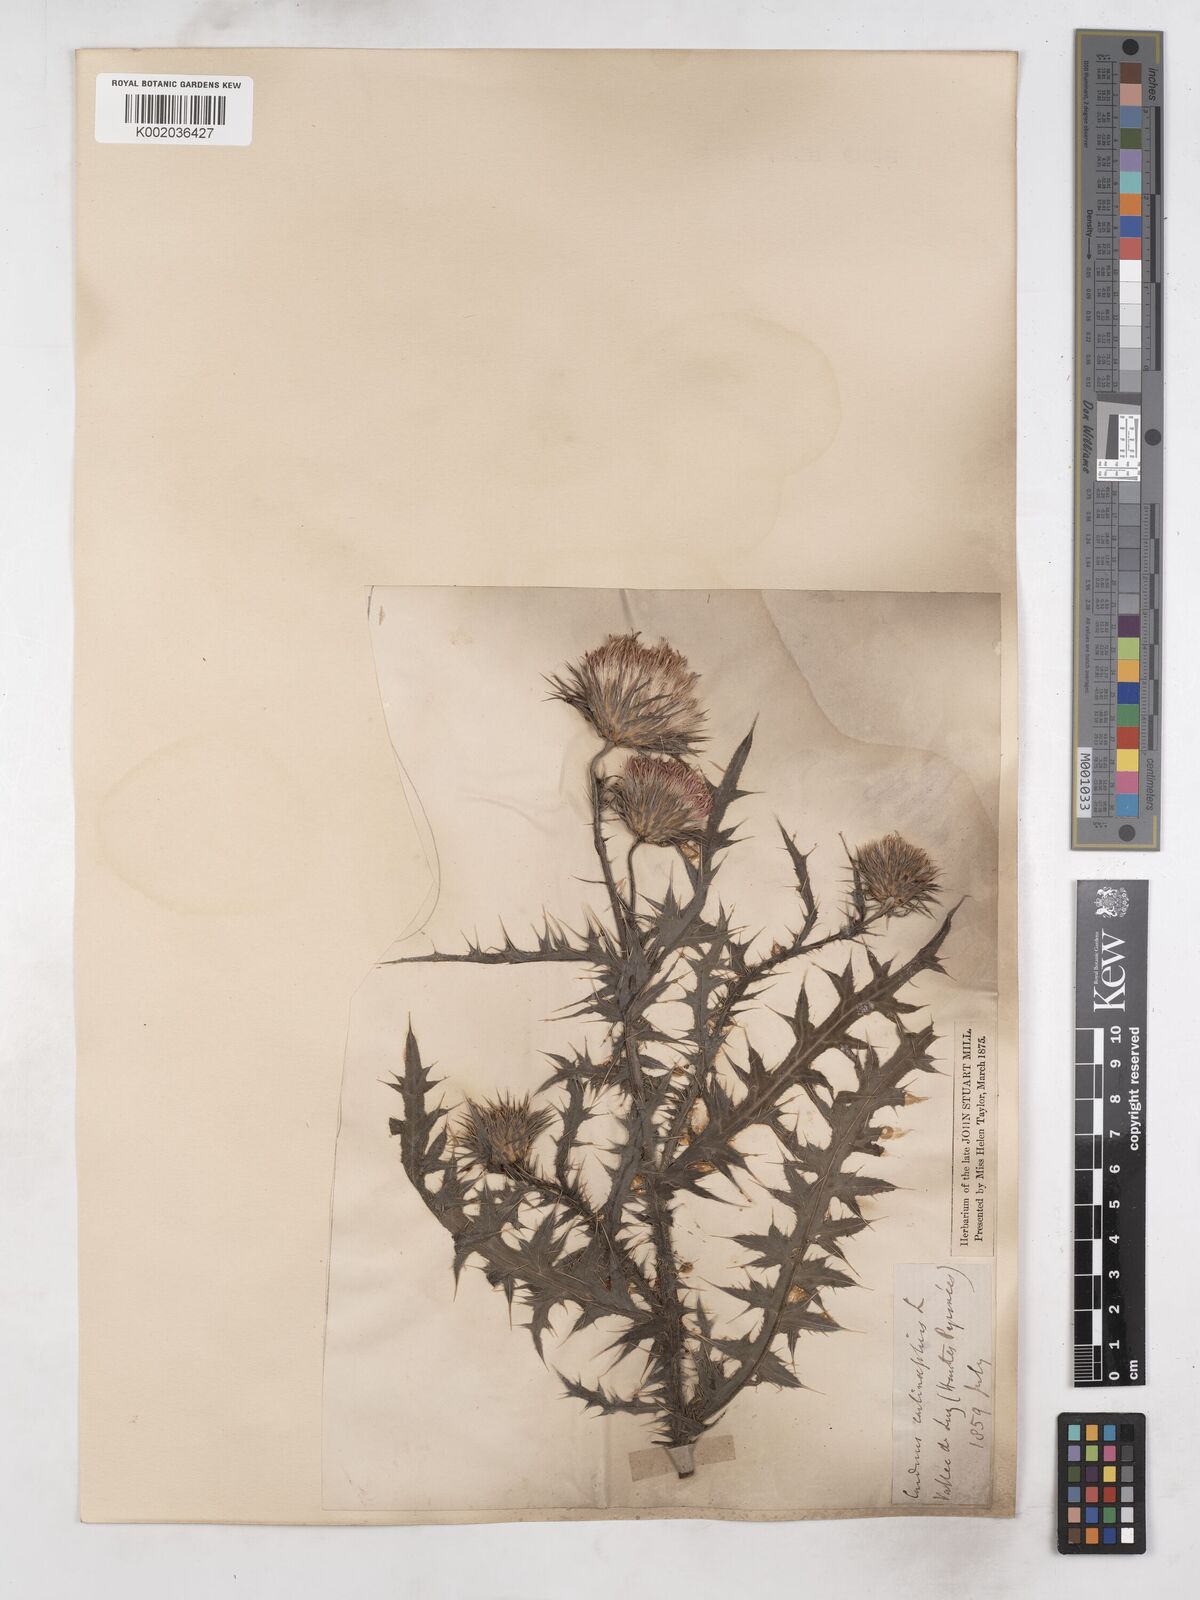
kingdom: Plantae
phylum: Tracheophyta
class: Magnoliopsida
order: Asterales
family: Asteraceae
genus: Carduus
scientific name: Carduus carlinifolius
